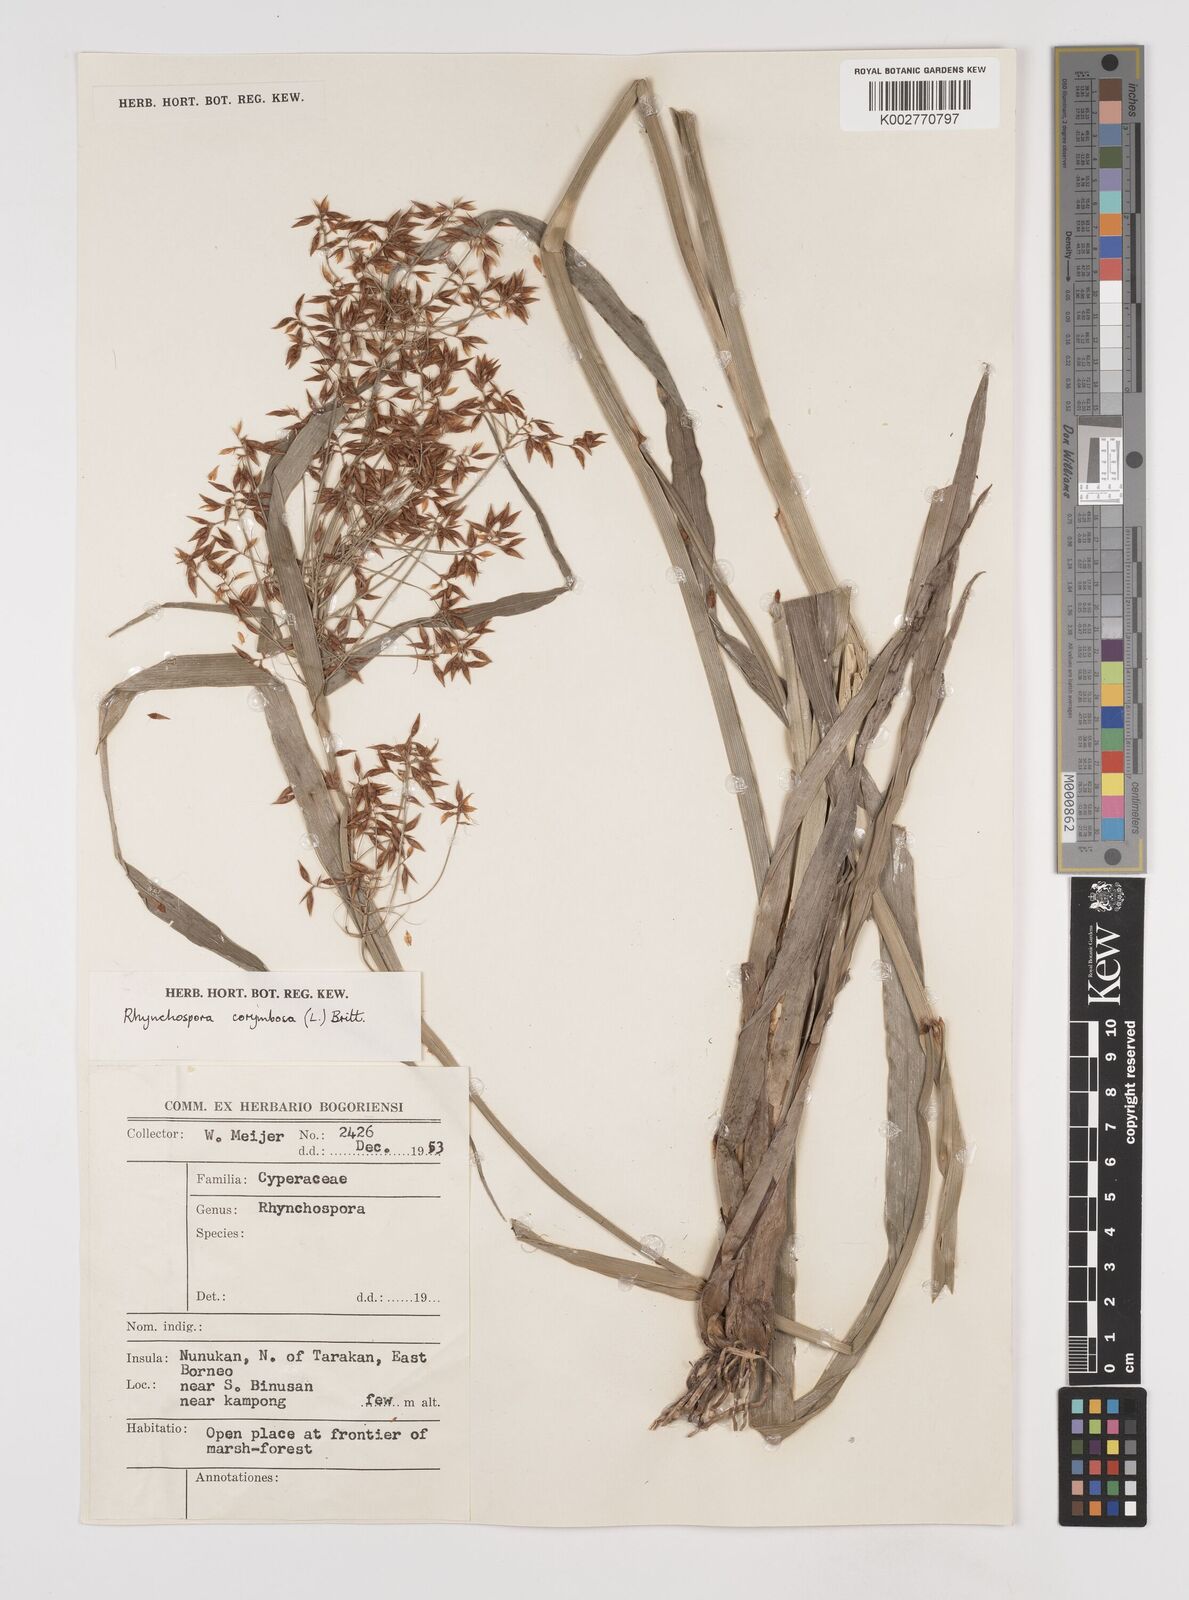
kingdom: Plantae
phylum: Tracheophyta
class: Liliopsida
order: Poales
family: Cyperaceae
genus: Rhynchospora
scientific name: Rhynchospora corymbosa
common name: Golden beak sedge
